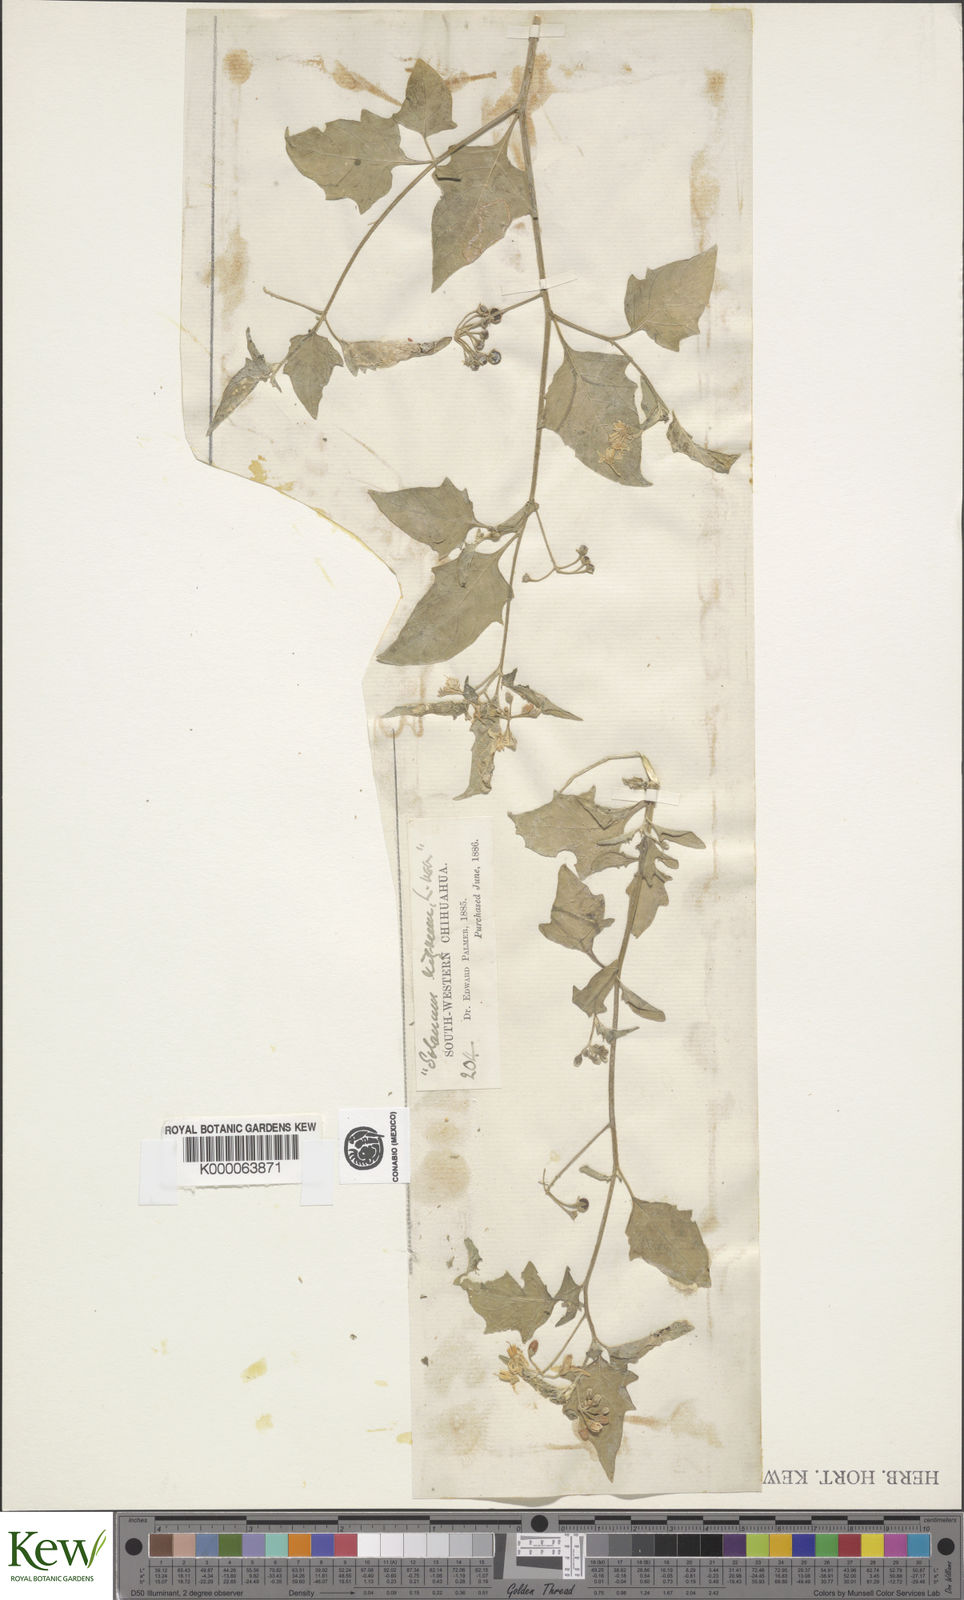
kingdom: Plantae
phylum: Tracheophyta
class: Magnoliopsida
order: Solanales
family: Solanaceae
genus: Solanum
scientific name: Solanum nigrum
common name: Black nightshade
